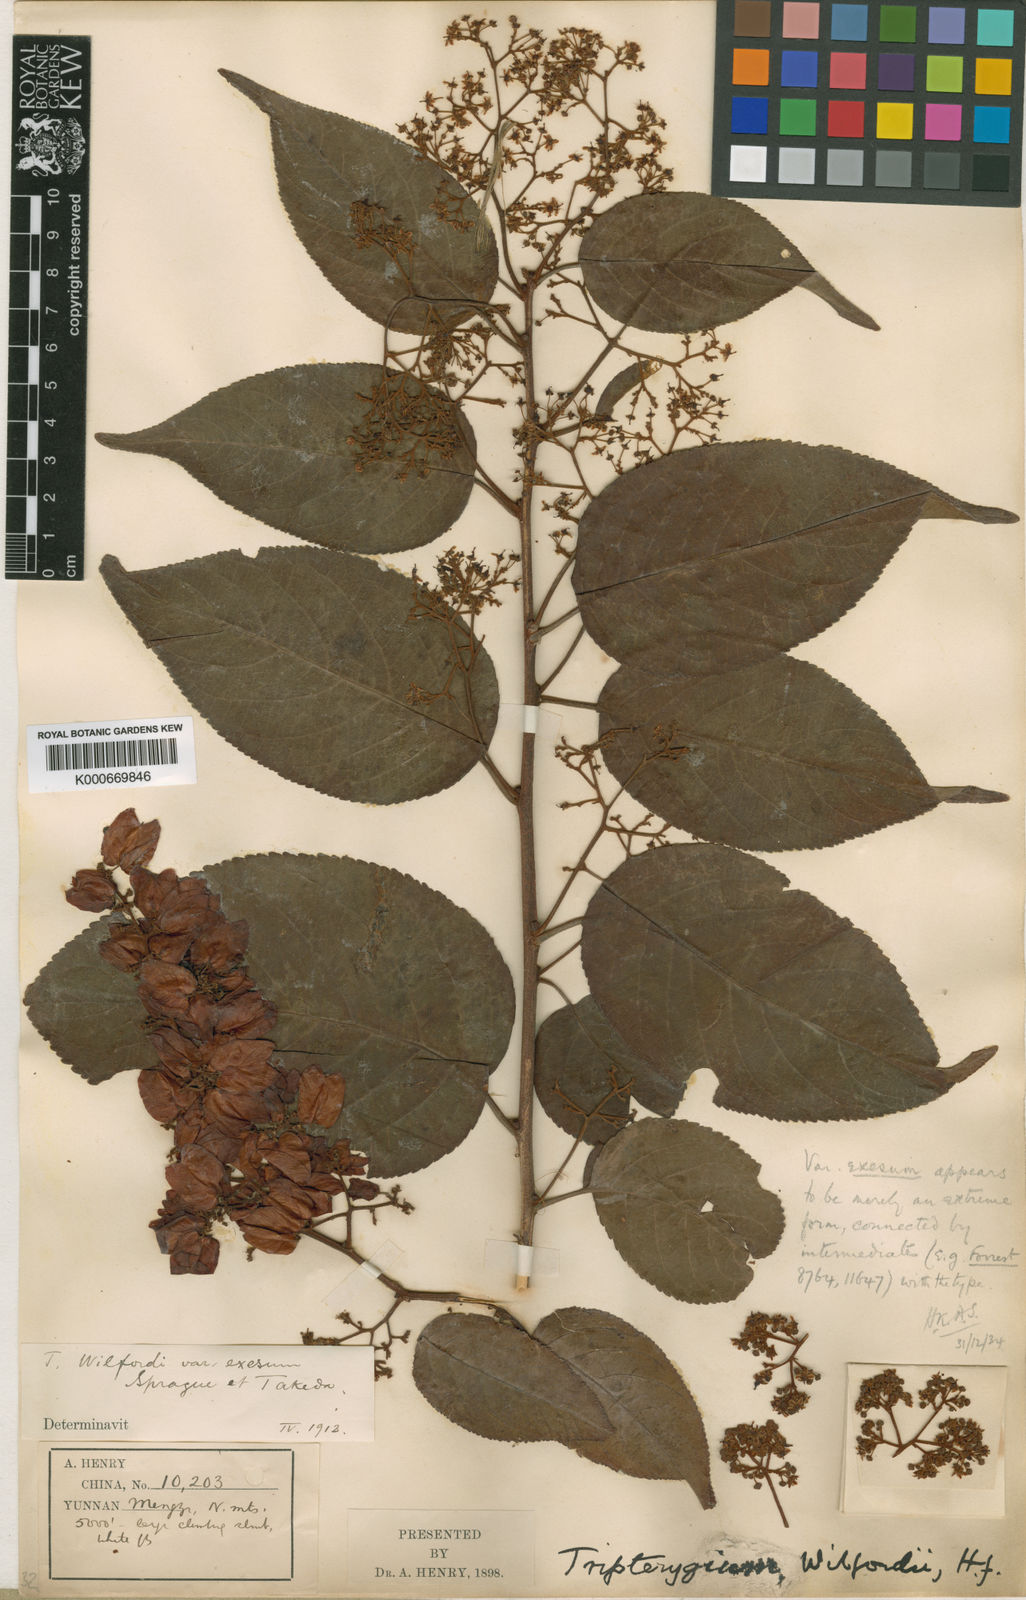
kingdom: Plantae
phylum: Tracheophyta
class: Magnoliopsida
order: Celastrales
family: Celastraceae
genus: Tripterygium
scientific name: Tripterygium wilfordii
